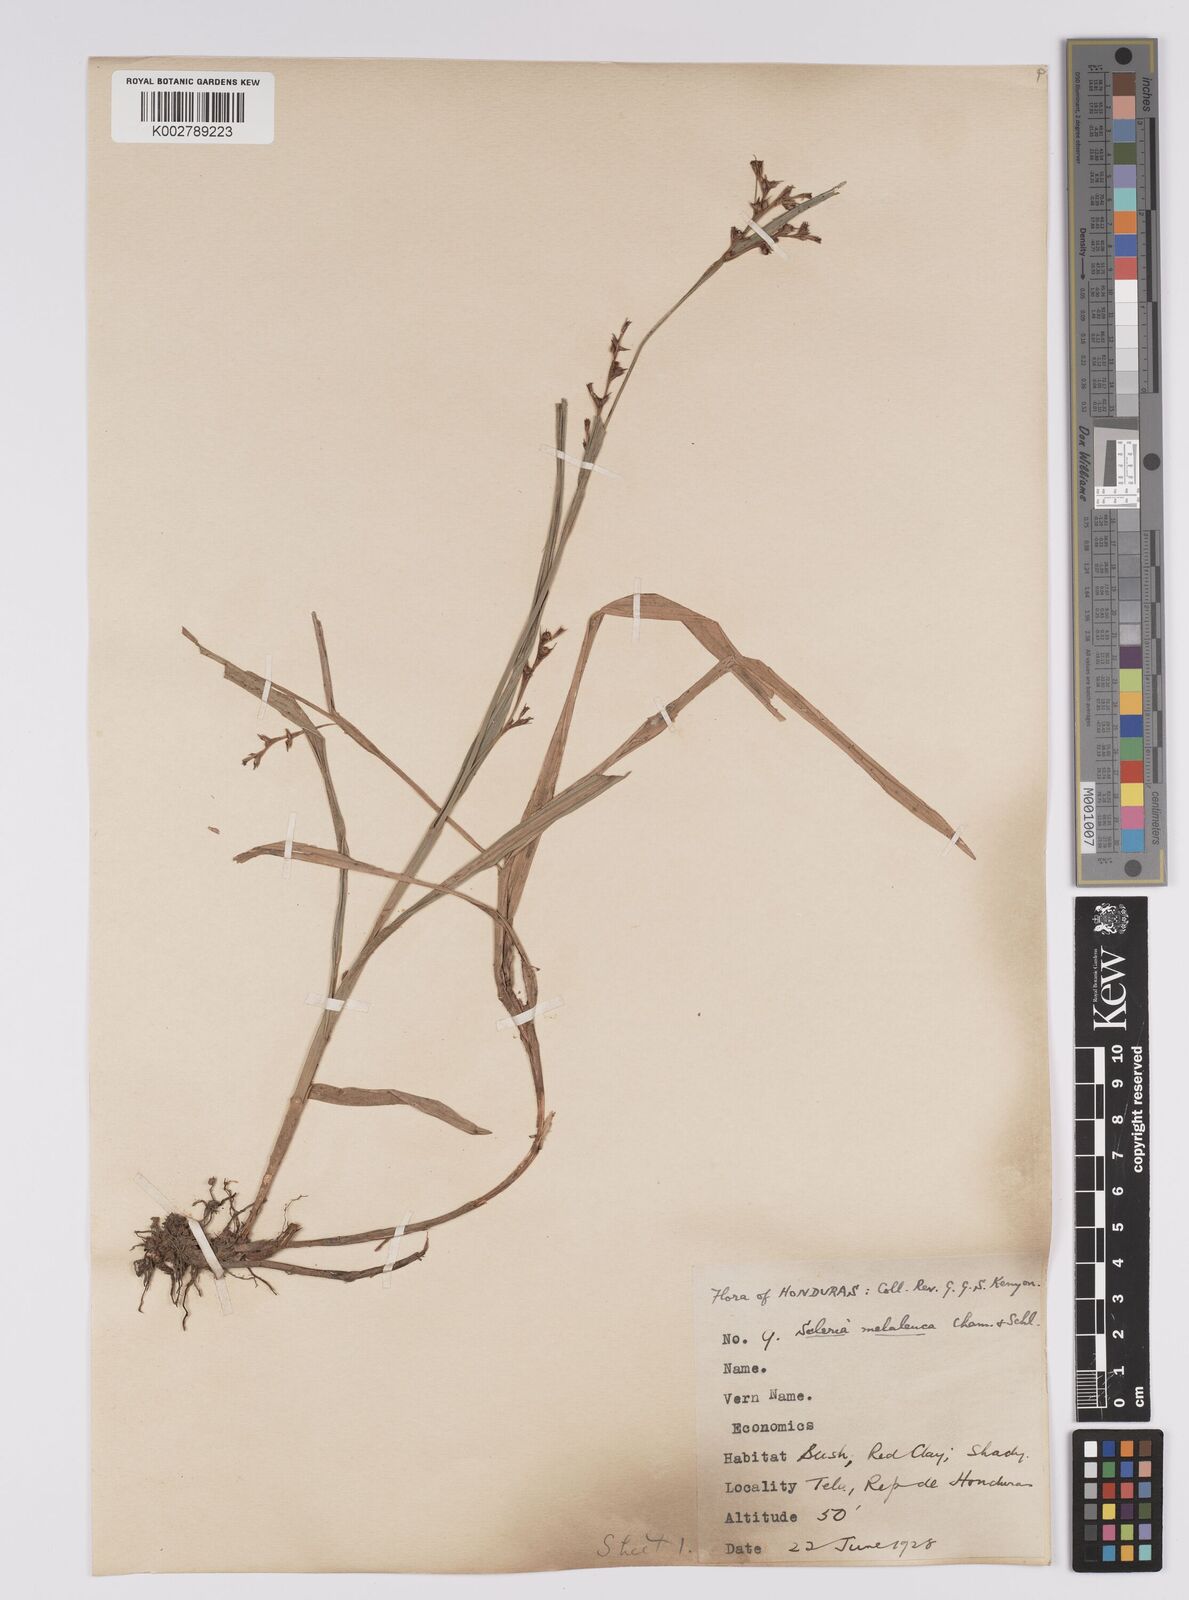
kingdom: Plantae
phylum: Tracheophyta
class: Liliopsida
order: Poales
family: Cyperaceae
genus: Scleria
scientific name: Scleria gaertneri
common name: Cortadera blanca
